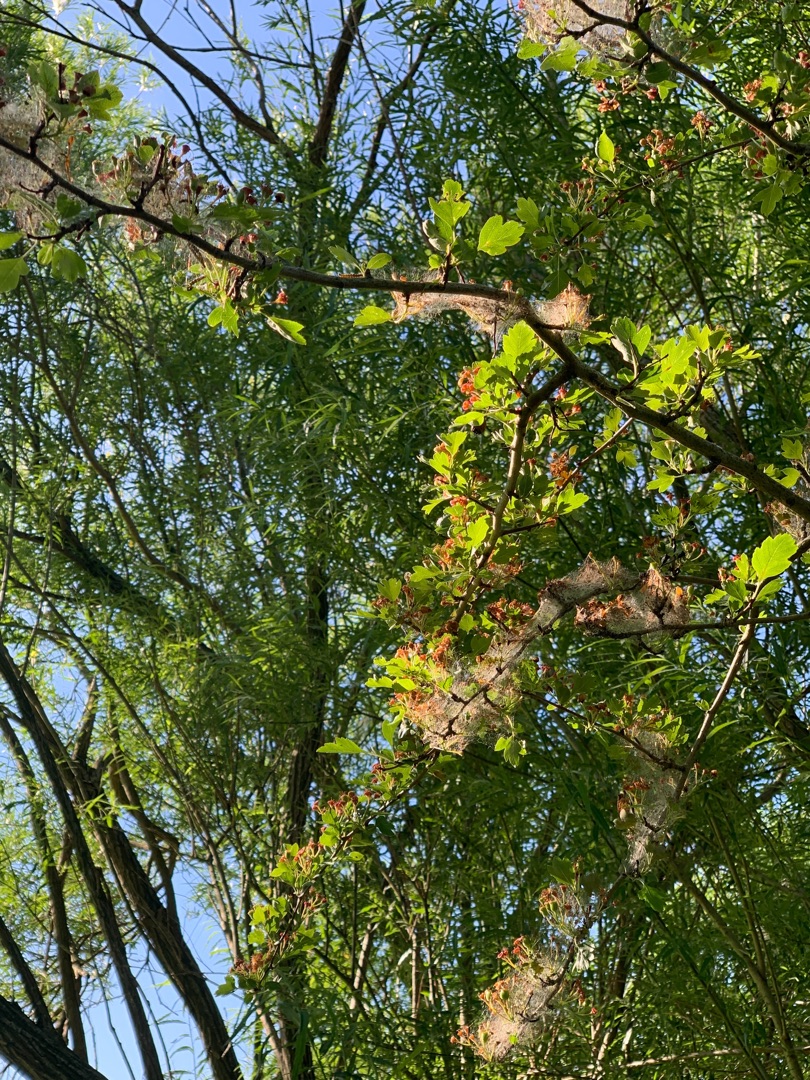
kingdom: Plantae
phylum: Tracheophyta
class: Magnoliopsida
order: Rosales
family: Rosaceae
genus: Crataegus
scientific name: Crataegus
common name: Hvidtjørnslægten
